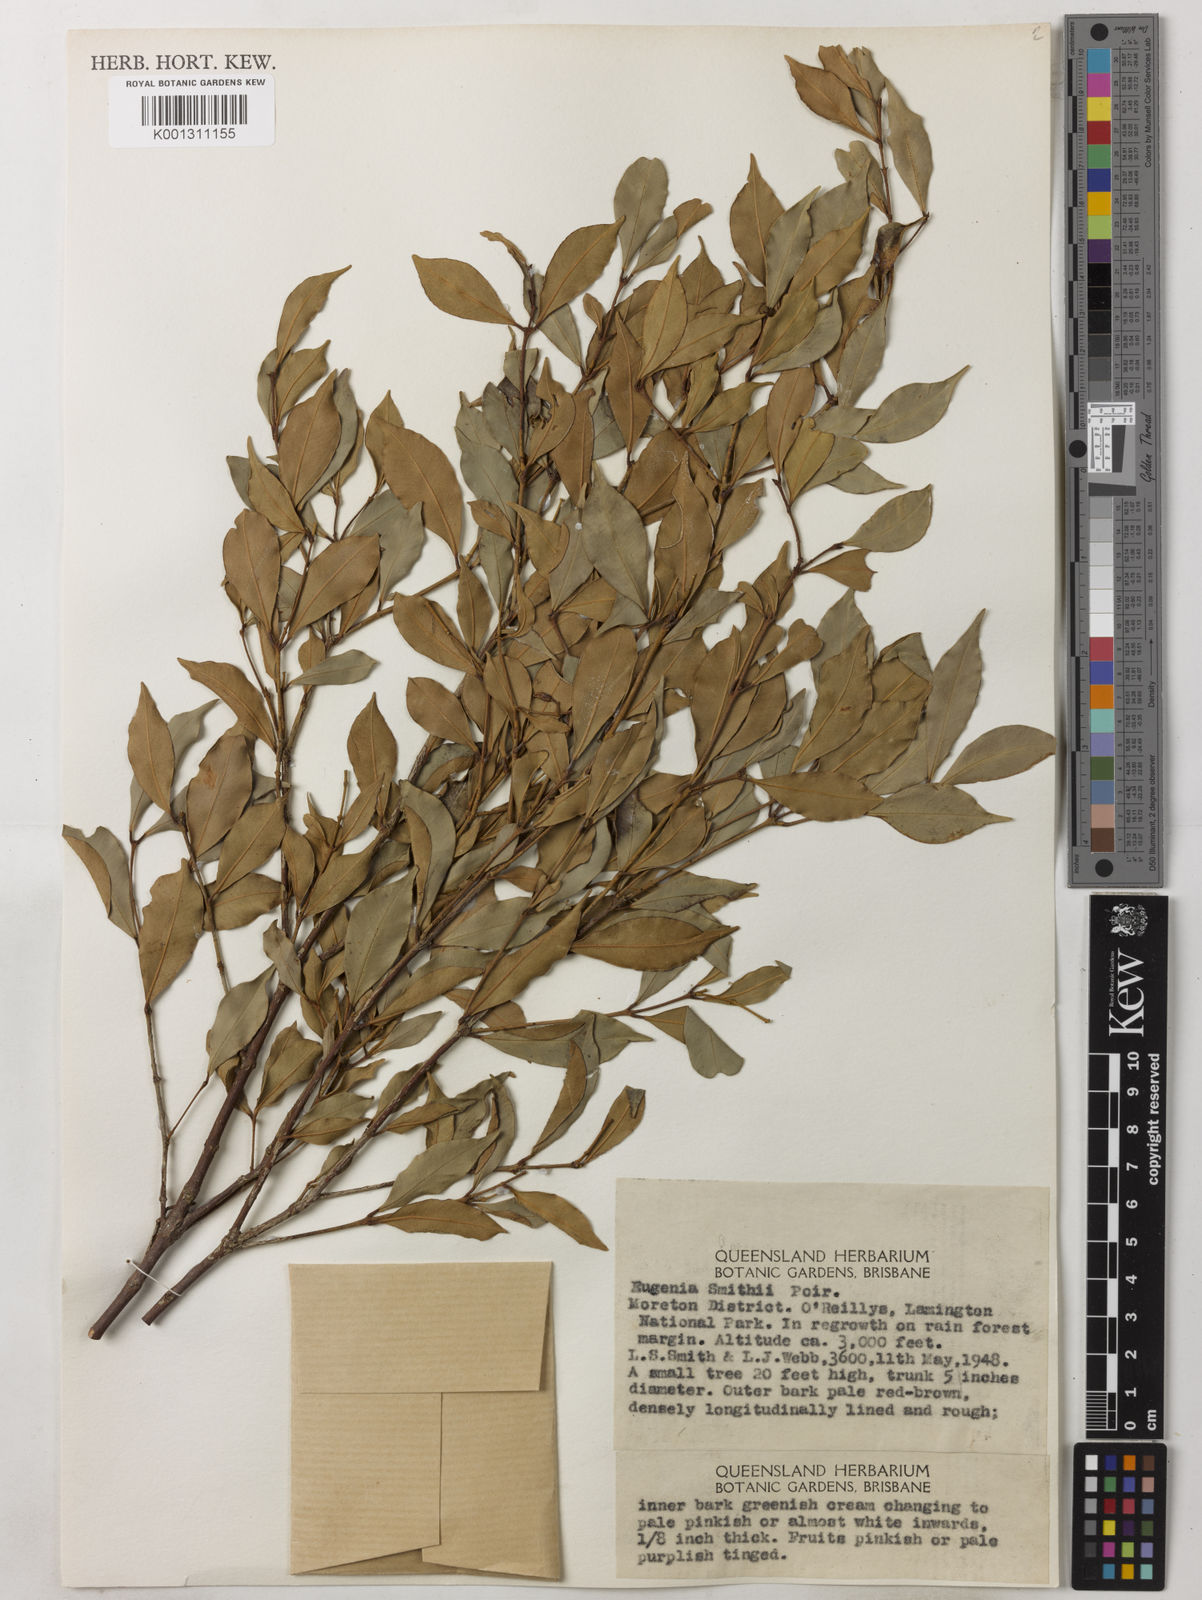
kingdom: Plantae
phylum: Tracheophyta
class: Magnoliopsida
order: Myrtales
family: Myrtaceae
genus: Syzygium
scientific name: Syzygium smithii
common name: Lilly-pilly
